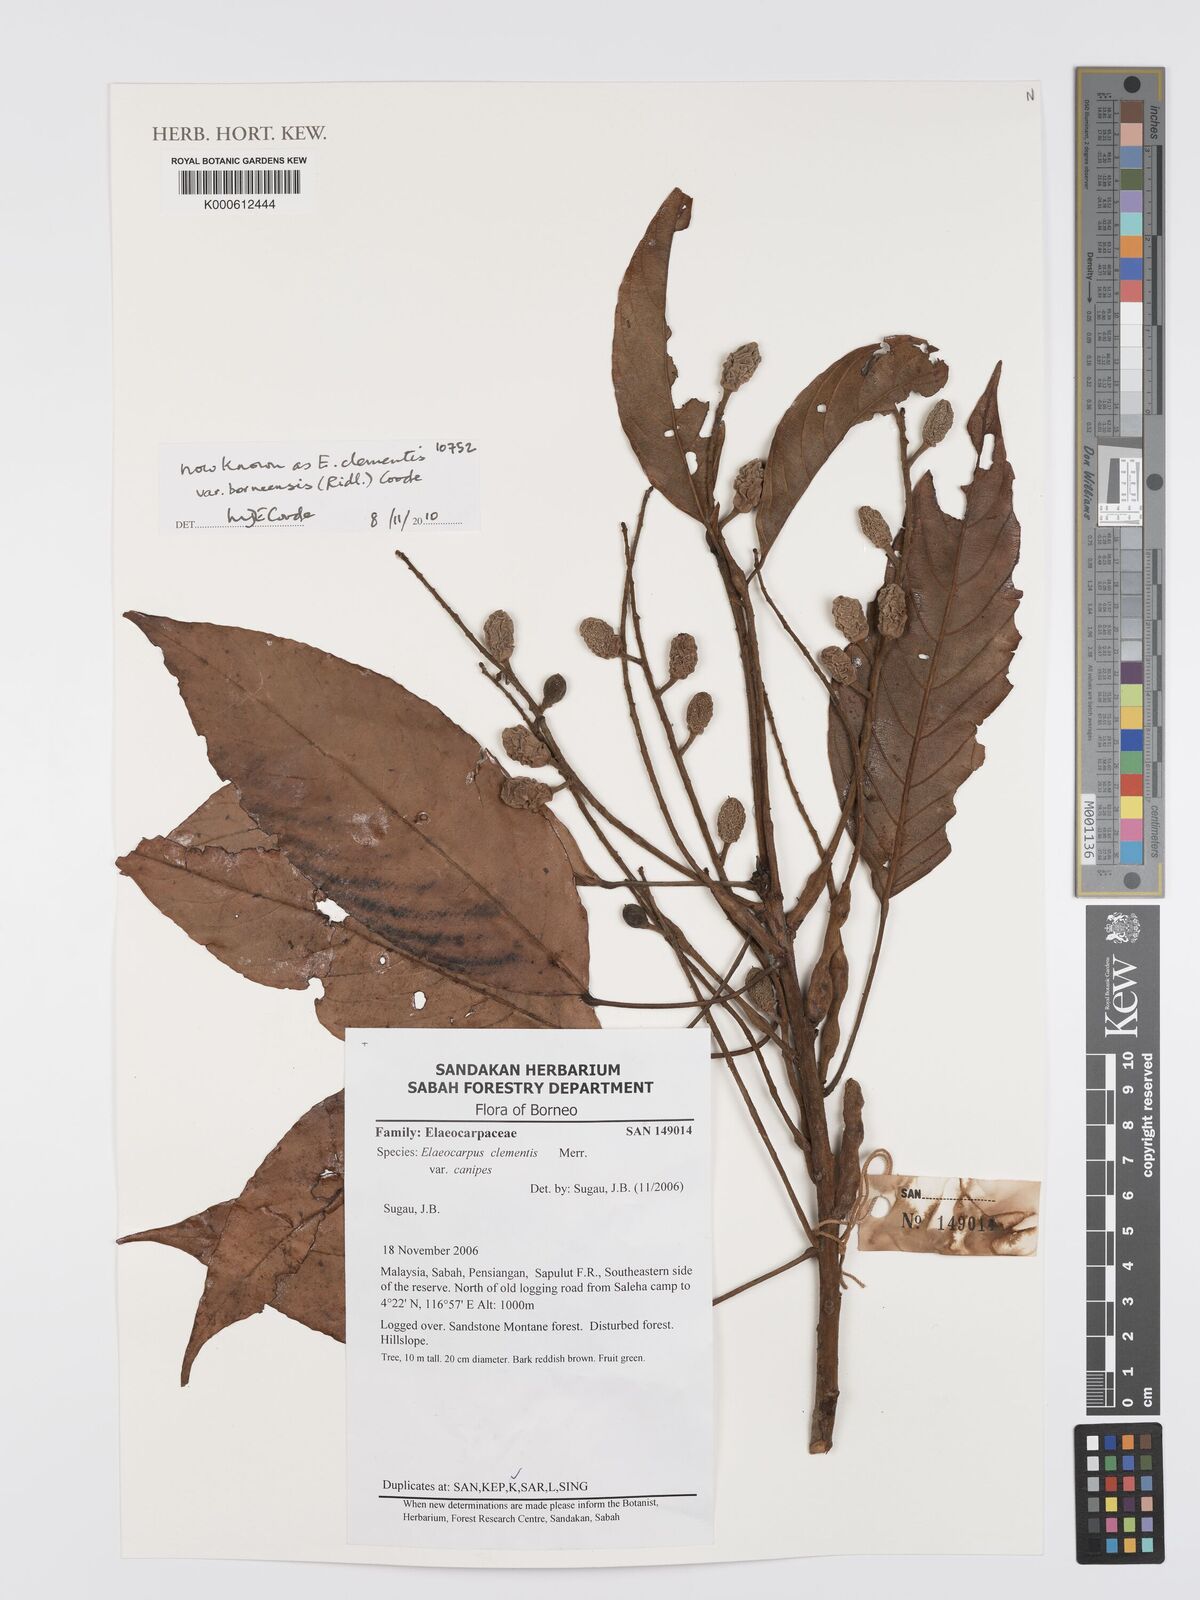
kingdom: Plantae
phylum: Tracheophyta
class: Magnoliopsida
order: Oxalidales
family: Elaeocarpaceae
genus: Elaeocarpus
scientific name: Elaeocarpus clementis
